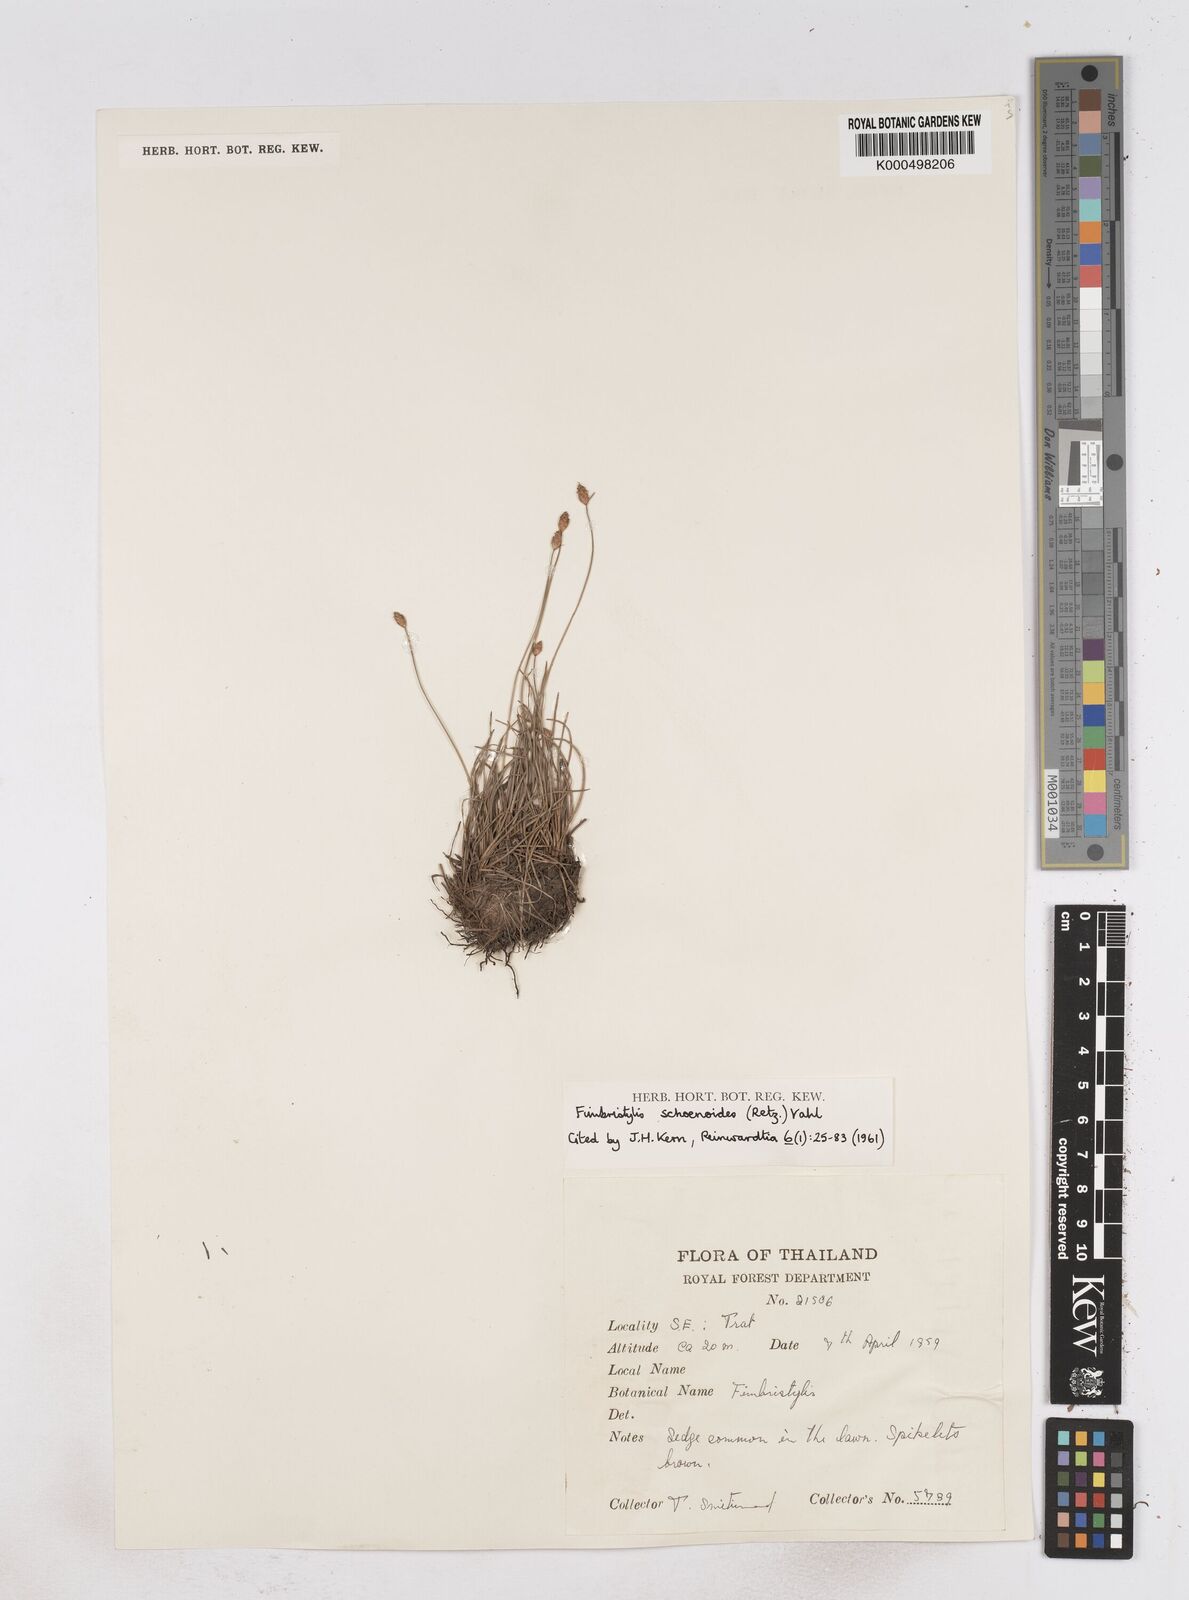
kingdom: Plantae
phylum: Tracheophyta
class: Liliopsida
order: Poales
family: Cyperaceae
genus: Fimbristylis
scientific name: Fimbristylis schoenoides
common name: Ditch fimbry
